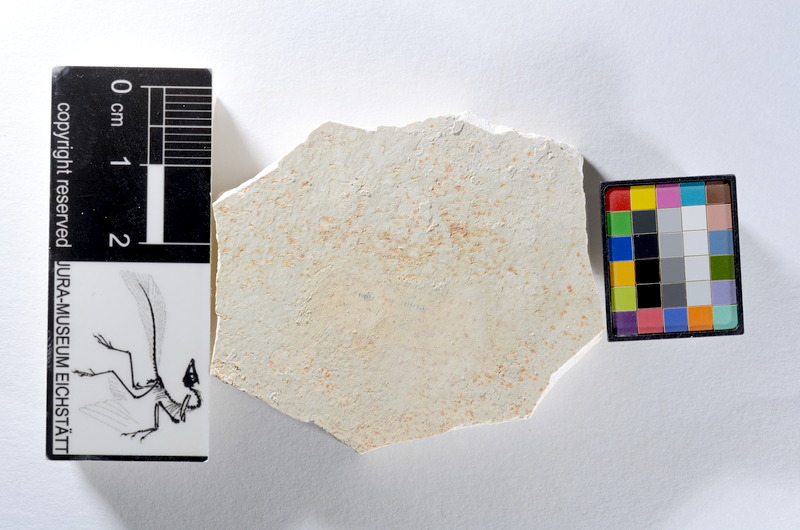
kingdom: Animalia
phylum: Chordata
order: Salmoniformes
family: Orthogonikleithridae
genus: Orthogonikleithrus
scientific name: Orthogonikleithrus hoelli
